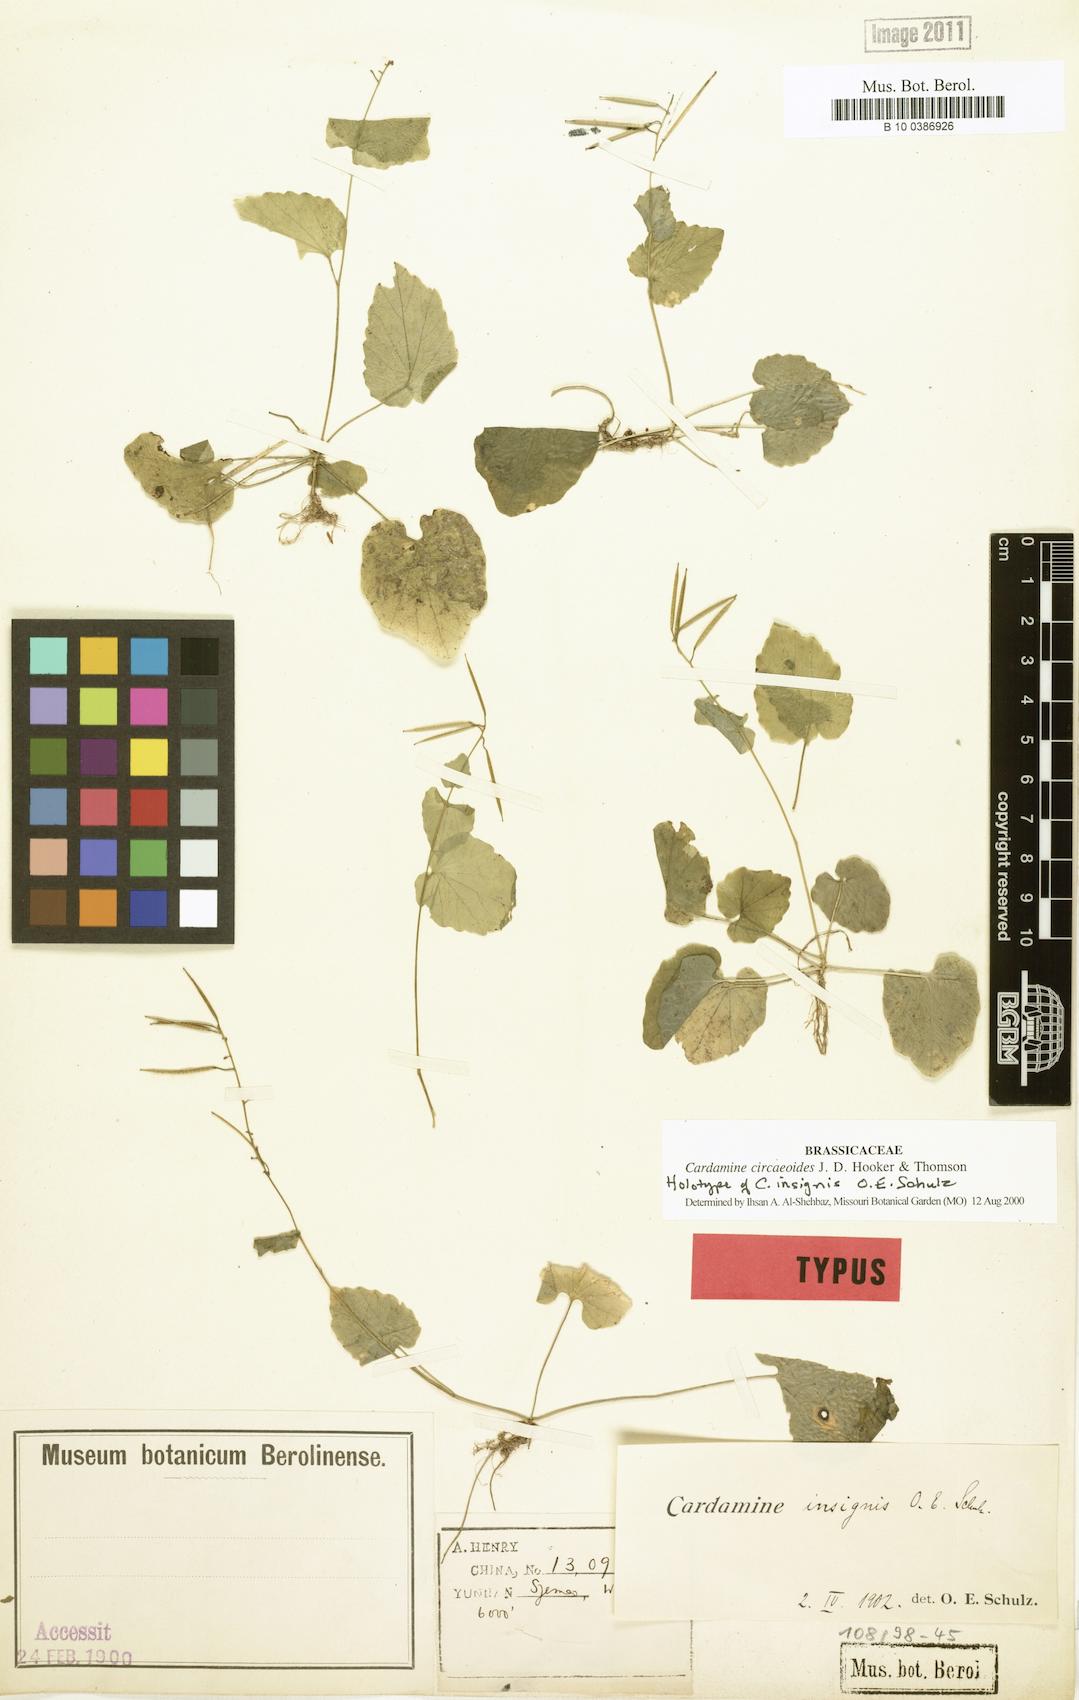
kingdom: Plantae
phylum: Tracheophyta
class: Magnoliopsida
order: Brassicales
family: Brassicaceae
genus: Cardamine
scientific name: Cardamine circaeoides
